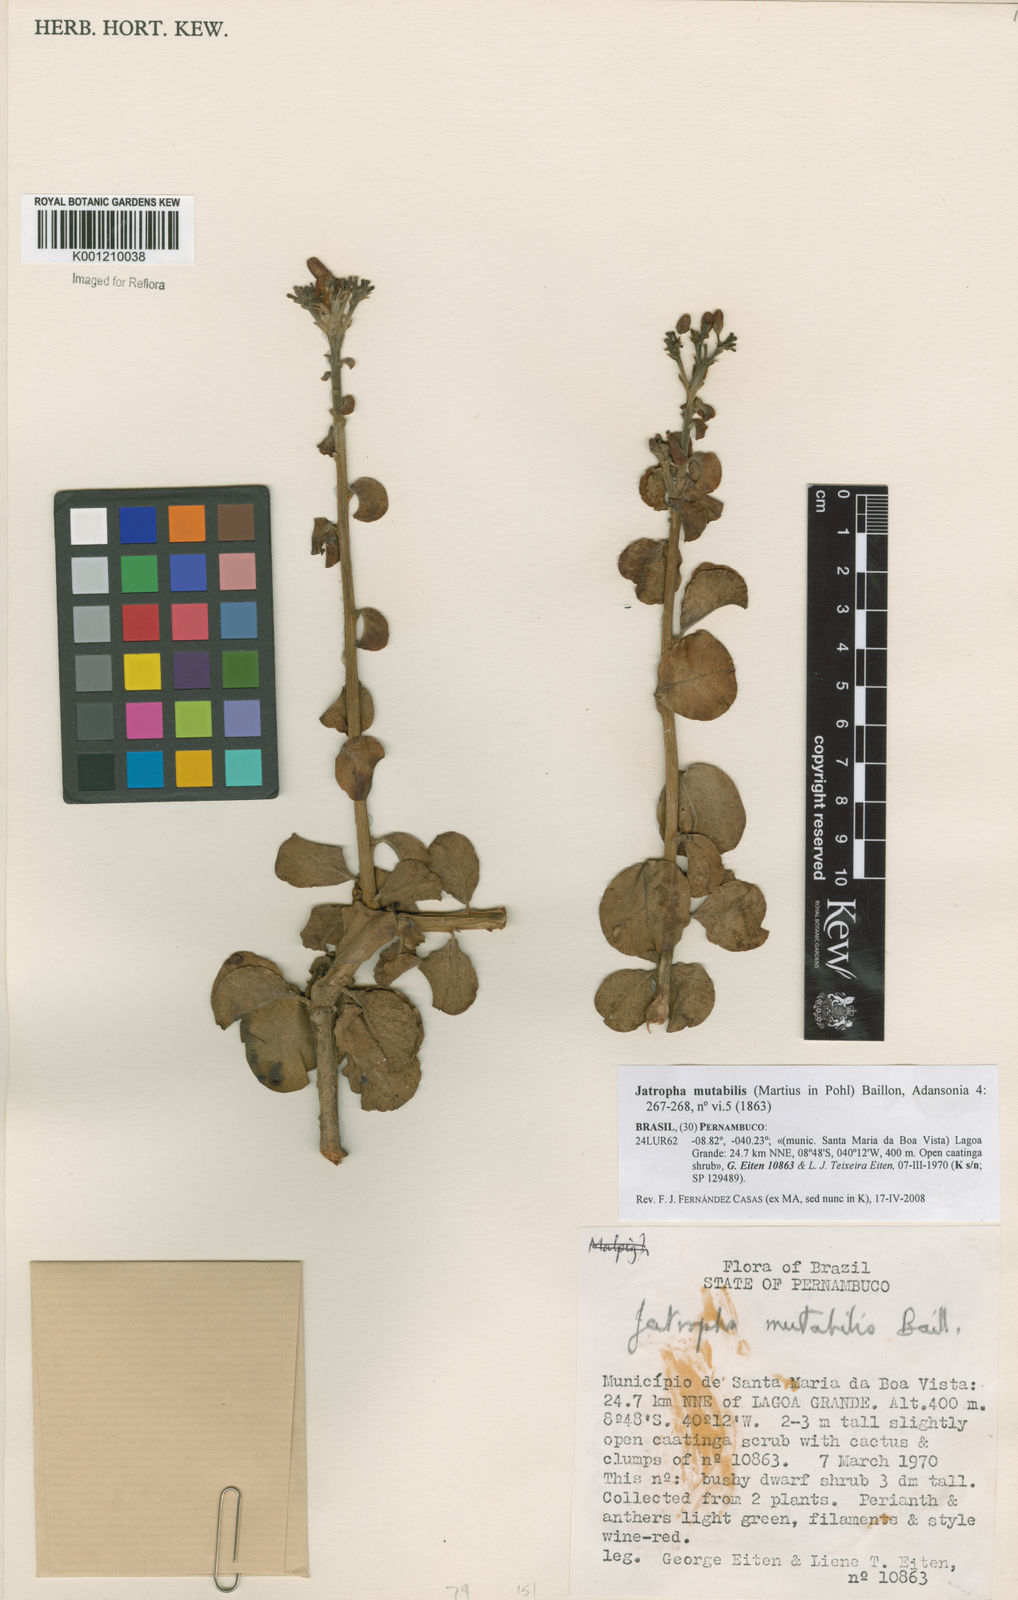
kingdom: Plantae
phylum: Tracheophyta
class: Magnoliopsida
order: Malpighiales
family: Euphorbiaceae
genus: Jatropha
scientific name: Jatropha mutabilis
